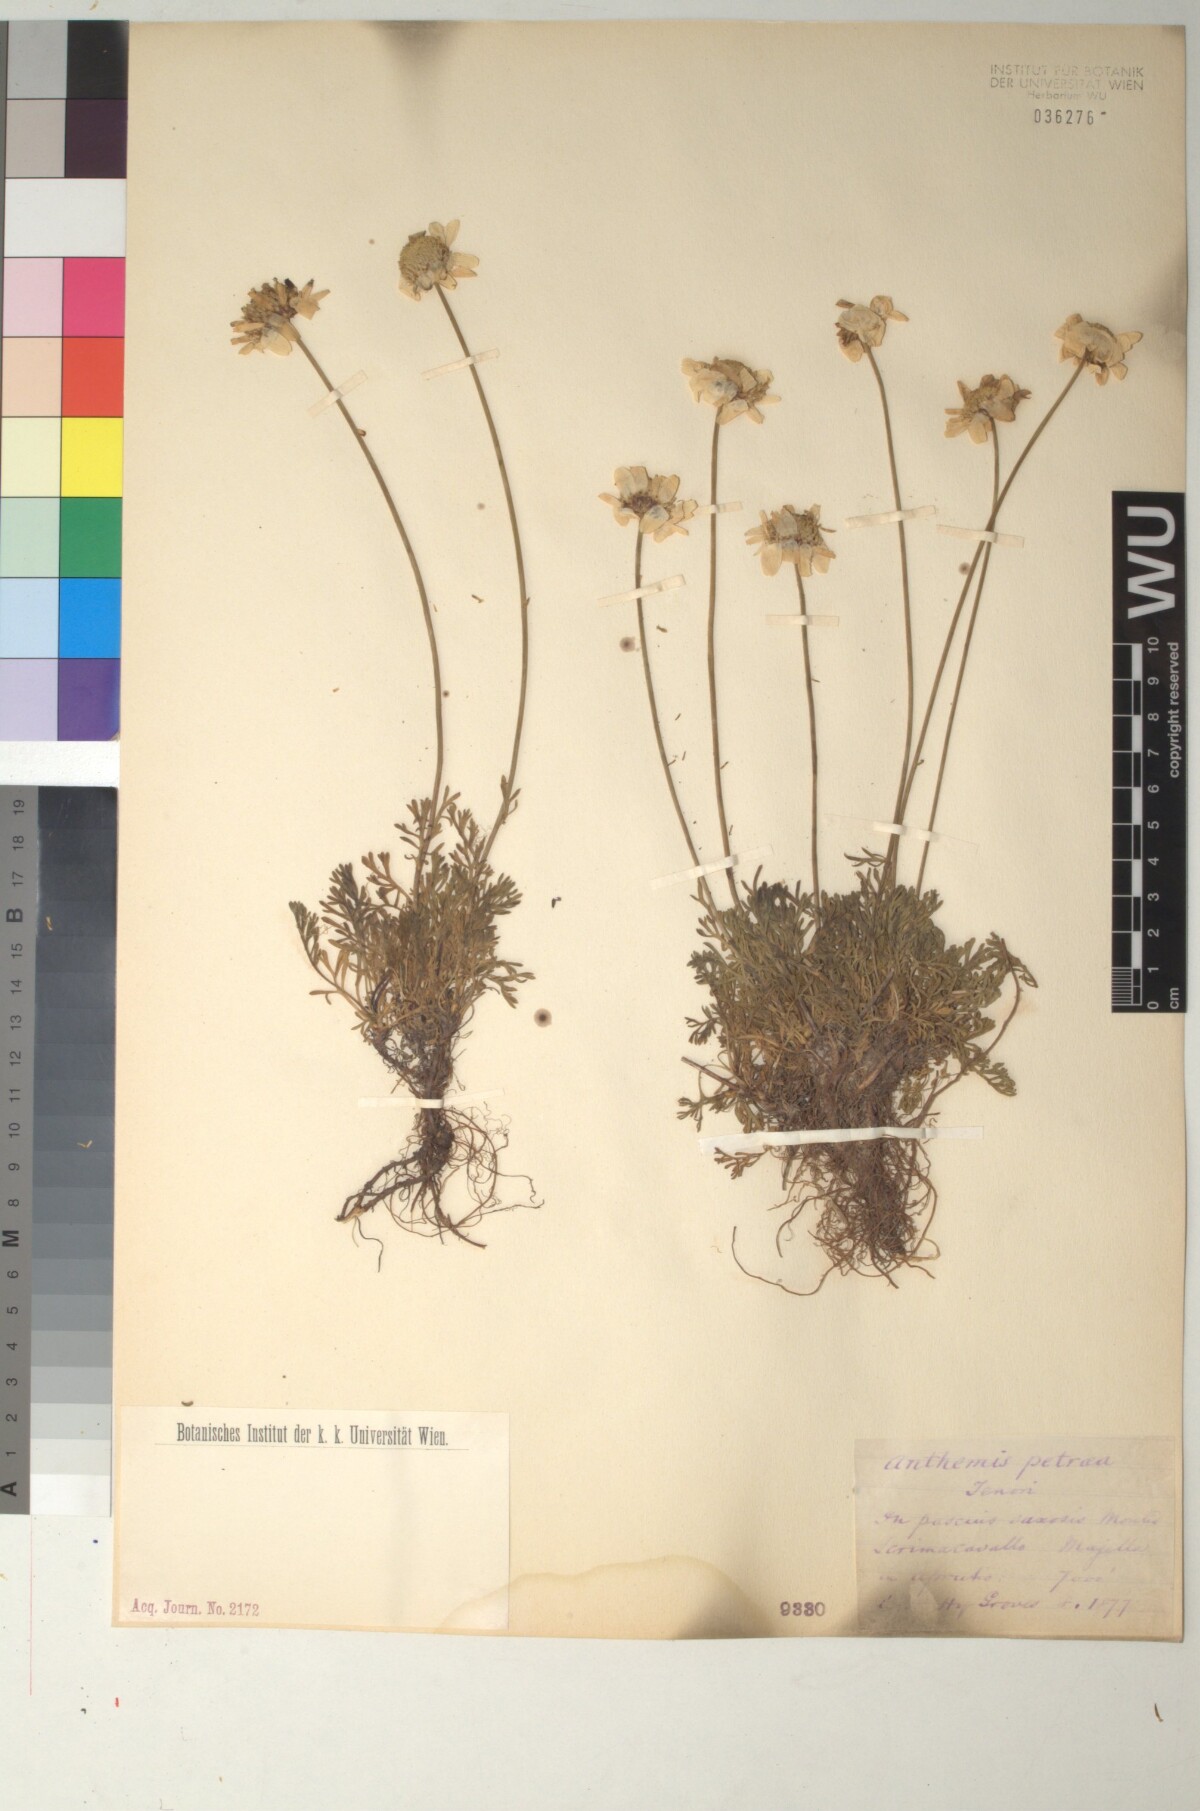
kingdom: Plantae
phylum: Tracheophyta
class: Magnoliopsida
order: Asterales
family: Asteraceae
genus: Anthemis
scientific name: Anthemis cretica
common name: Mountain dog-daisy
